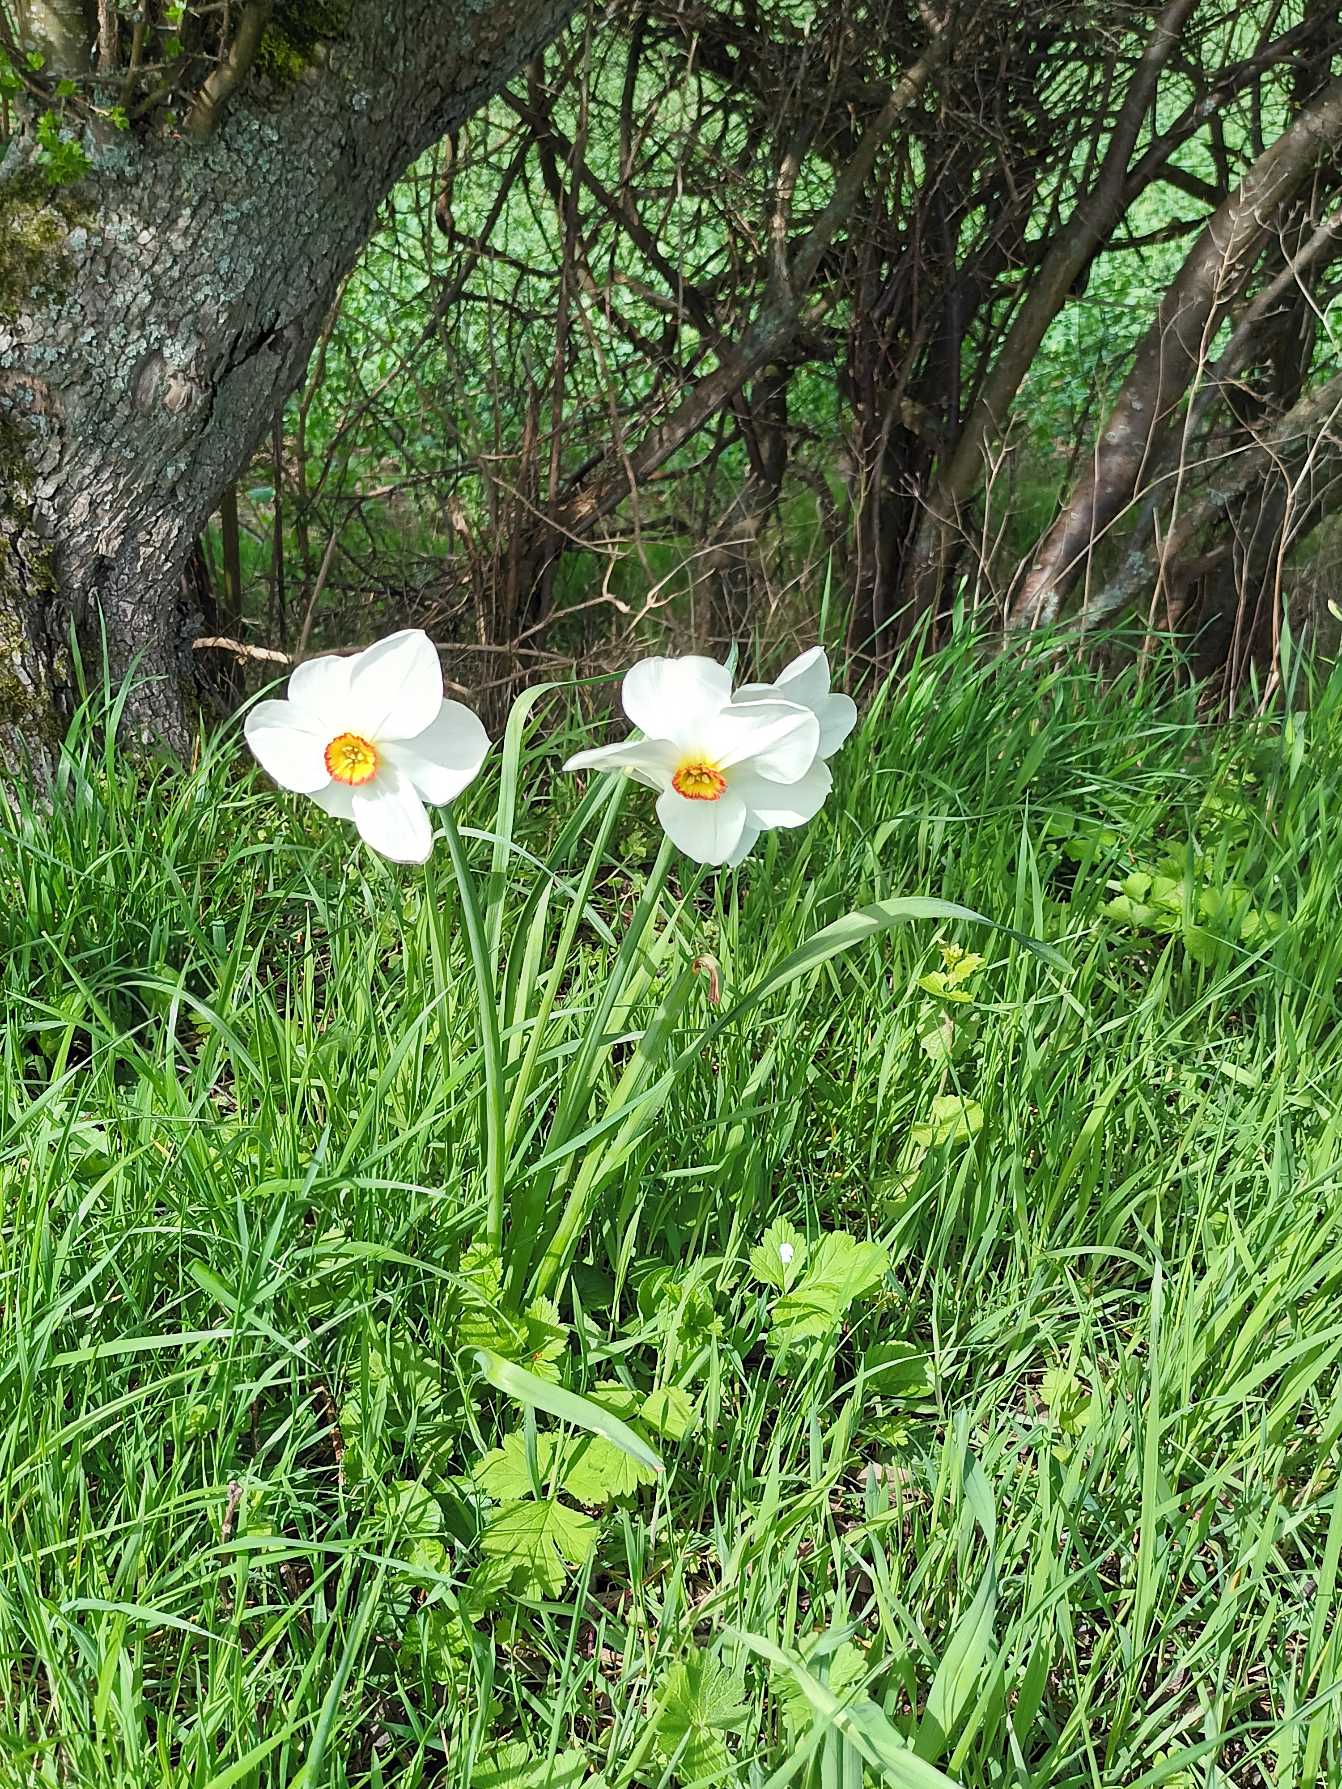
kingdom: Plantae
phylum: Tracheophyta
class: Liliopsida
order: Asparagales
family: Amaryllidaceae
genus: Narcissus
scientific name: Narcissus poeticus
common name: Pinselilje
